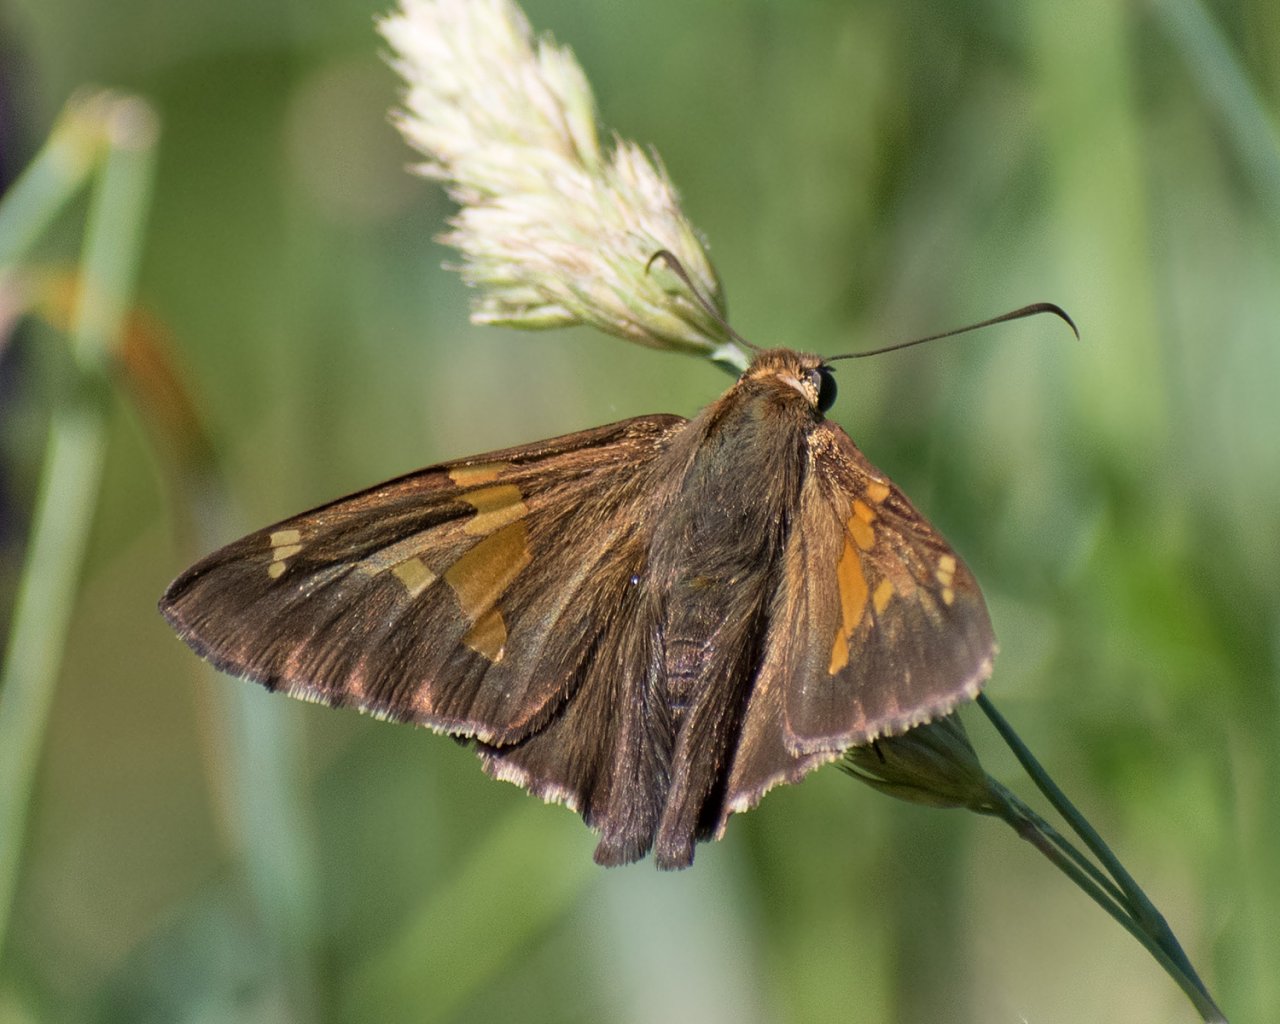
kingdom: Animalia
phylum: Arthropoda
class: Insecta
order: Lepidoptera
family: Hesperiidae
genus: Epargyreus
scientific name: Epargyreus clarus
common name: Silver-spotted Skipper
